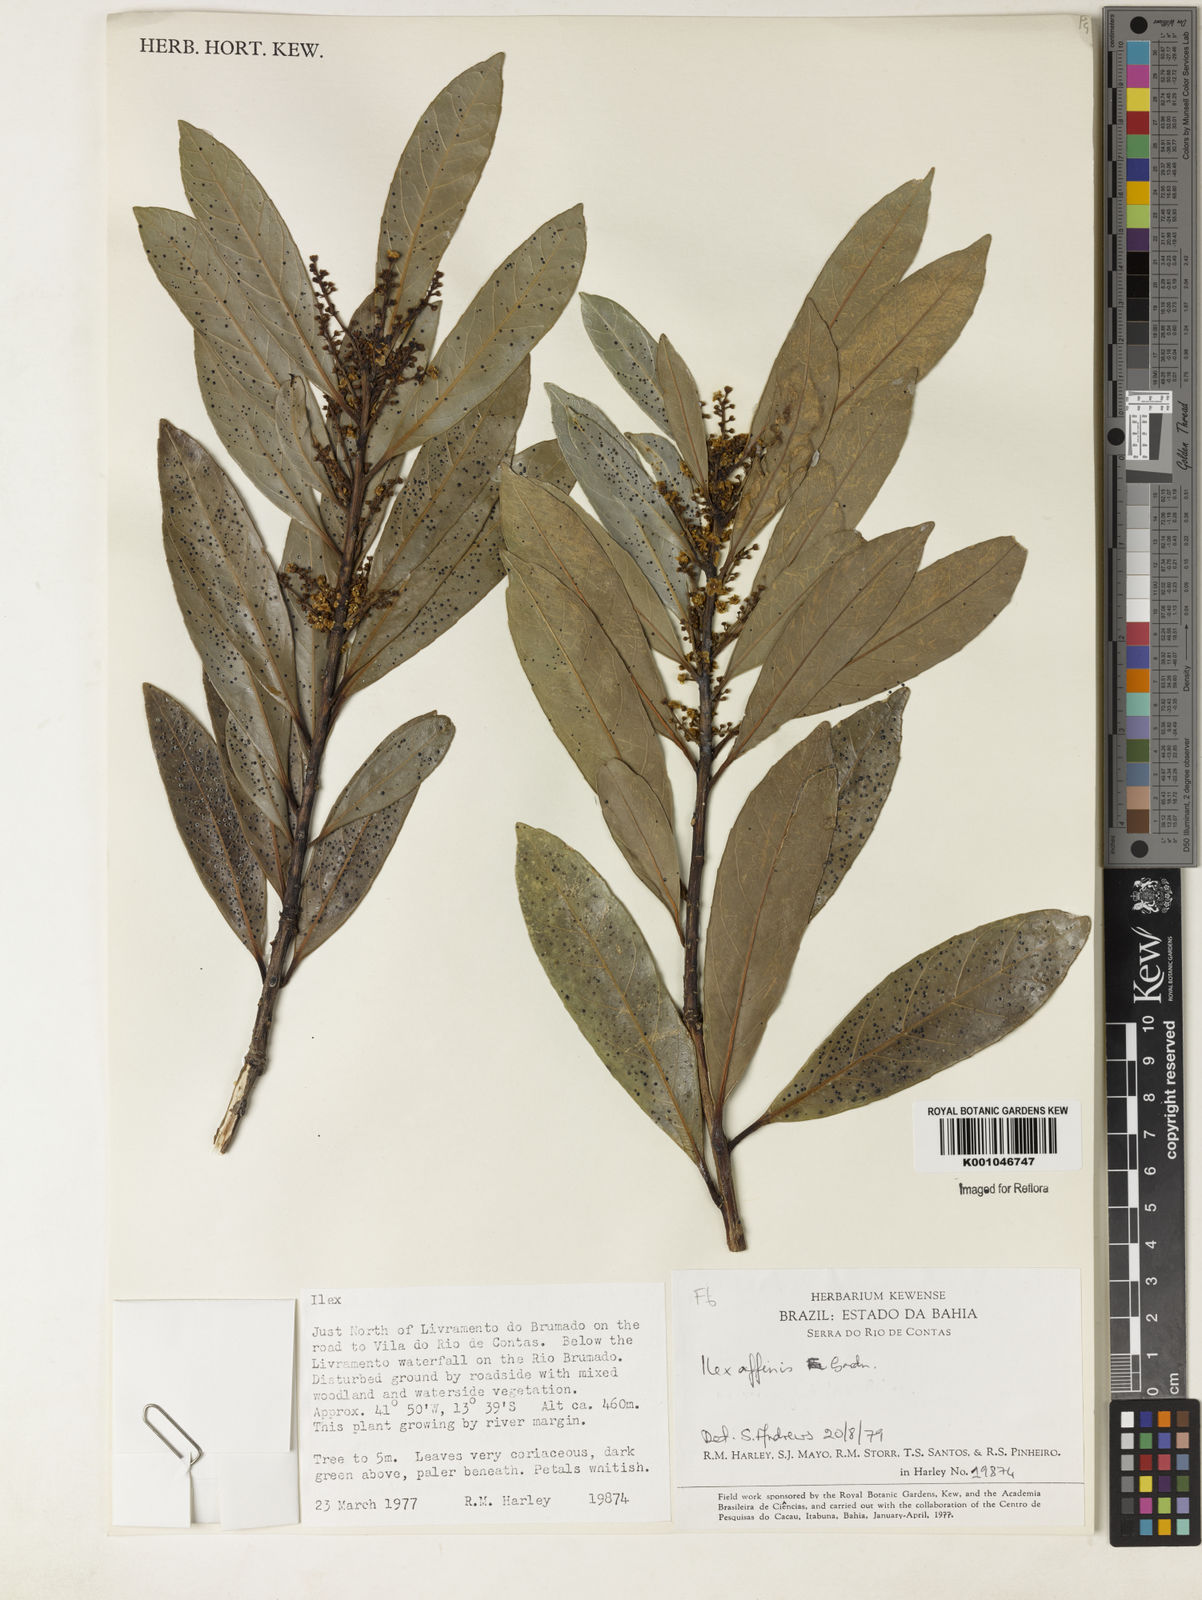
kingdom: Plantae
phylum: Tracheophyta
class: Magnoliopsida
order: Aquifoliales
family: Aquifoliaceae
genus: Ilex
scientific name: Ilex affinis
